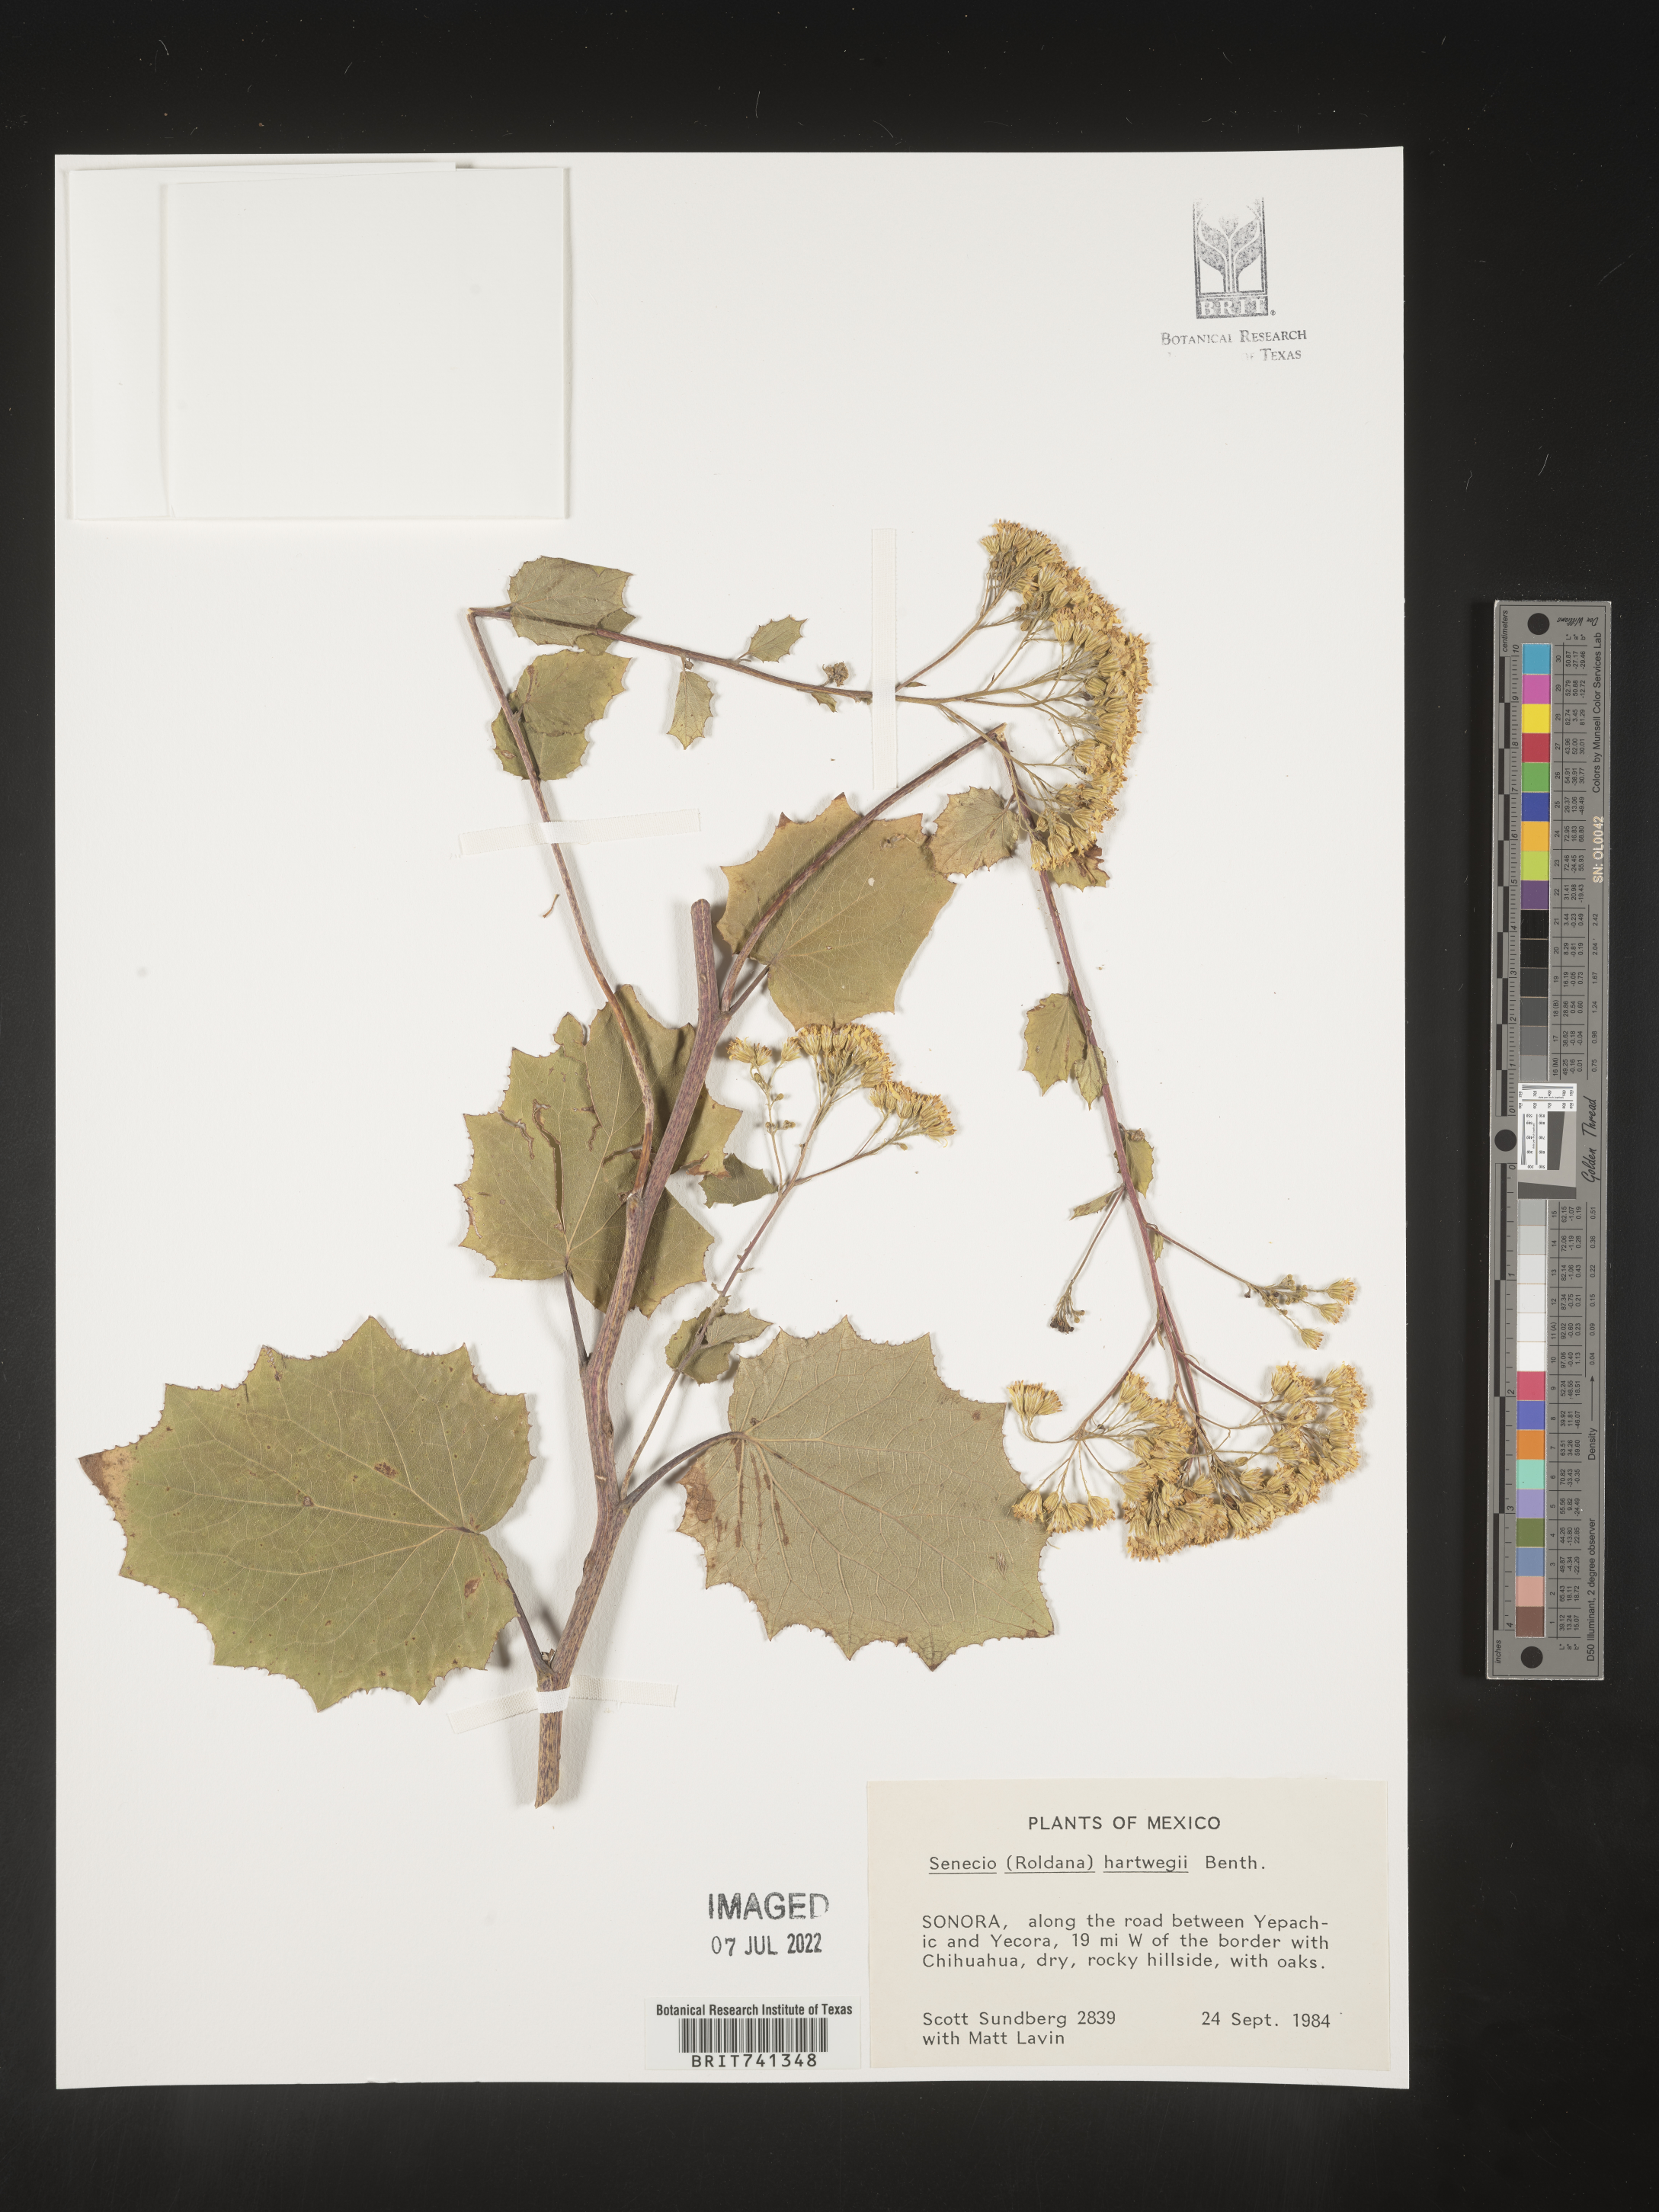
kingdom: Plantae
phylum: Tracheophyta
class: Magnoliopsida
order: Asterales
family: Asteraceae
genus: Senecio
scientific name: Senecio
